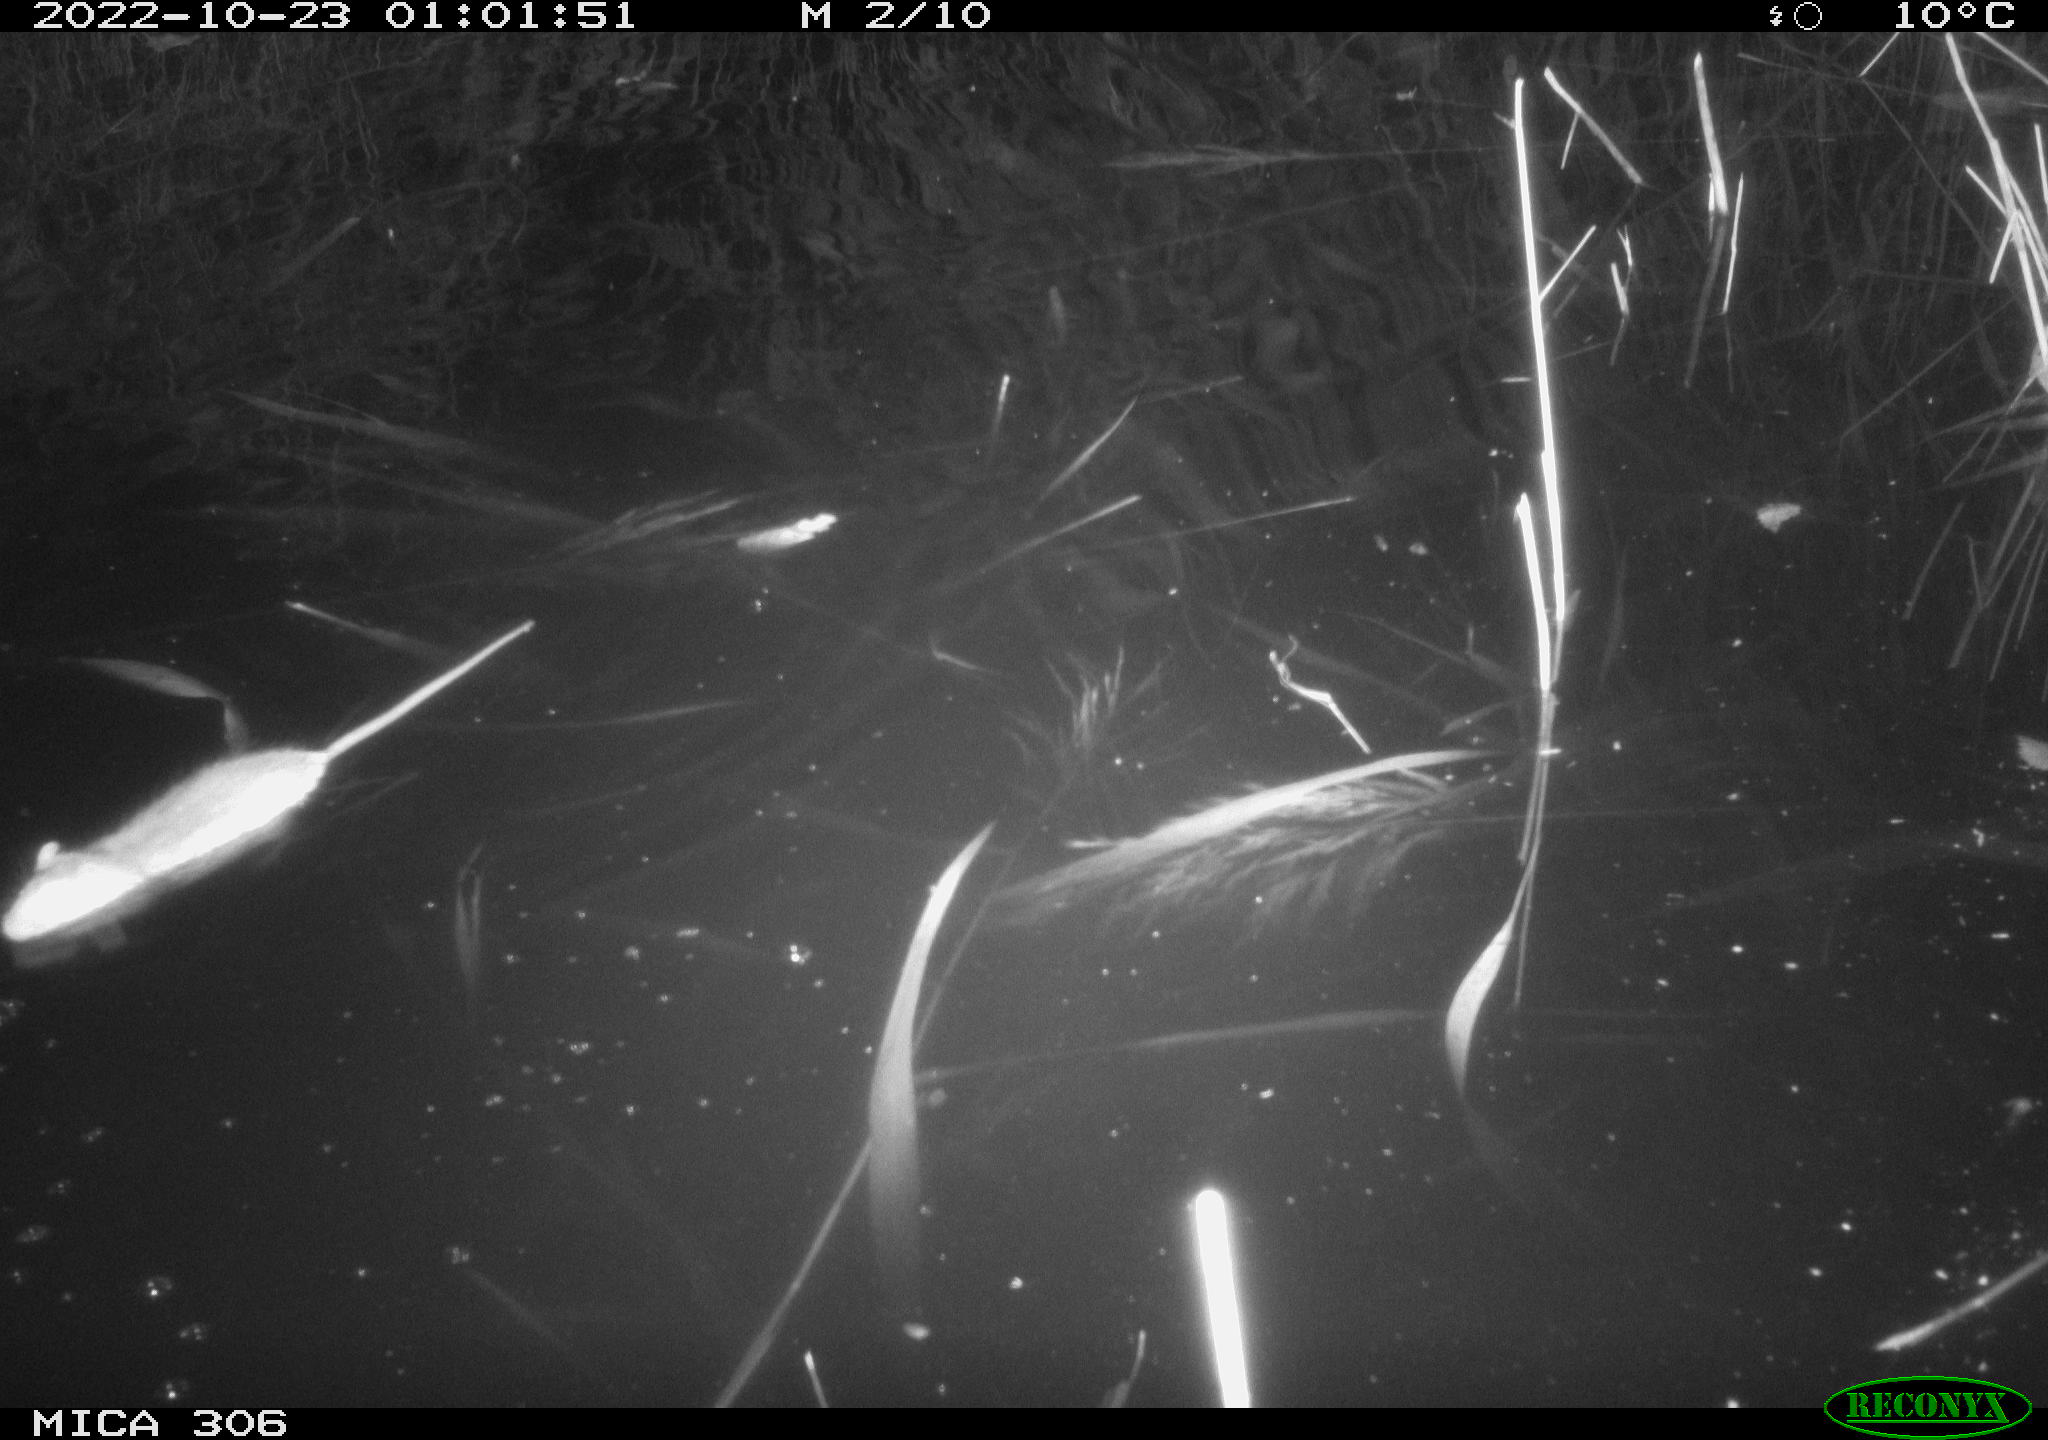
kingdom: Animalia
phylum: Chordata
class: Mammalia
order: Rodentia
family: Muridae
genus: Rattus
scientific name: Rattus norvegicus
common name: Brown rat
